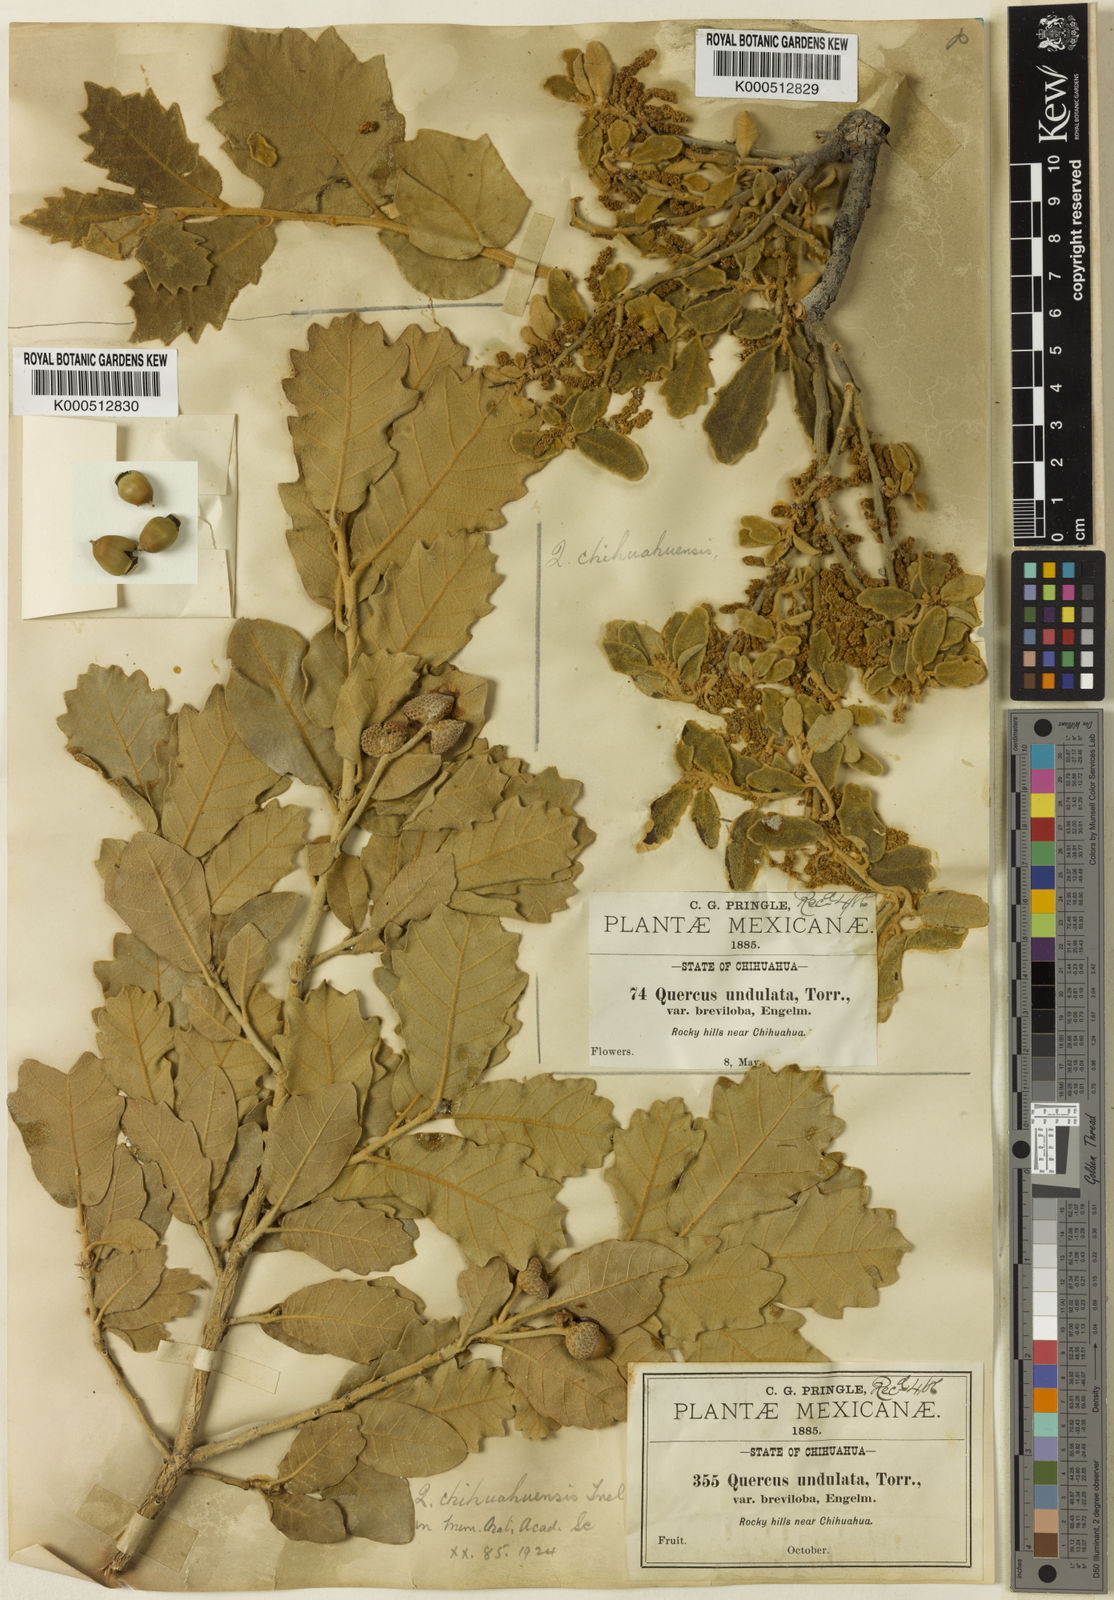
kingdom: Plantae
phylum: Tracheophyta
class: Magnoliopsida
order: Fagales
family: Fagaceae
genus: Quercus
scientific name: Quercus chihuahuensis
